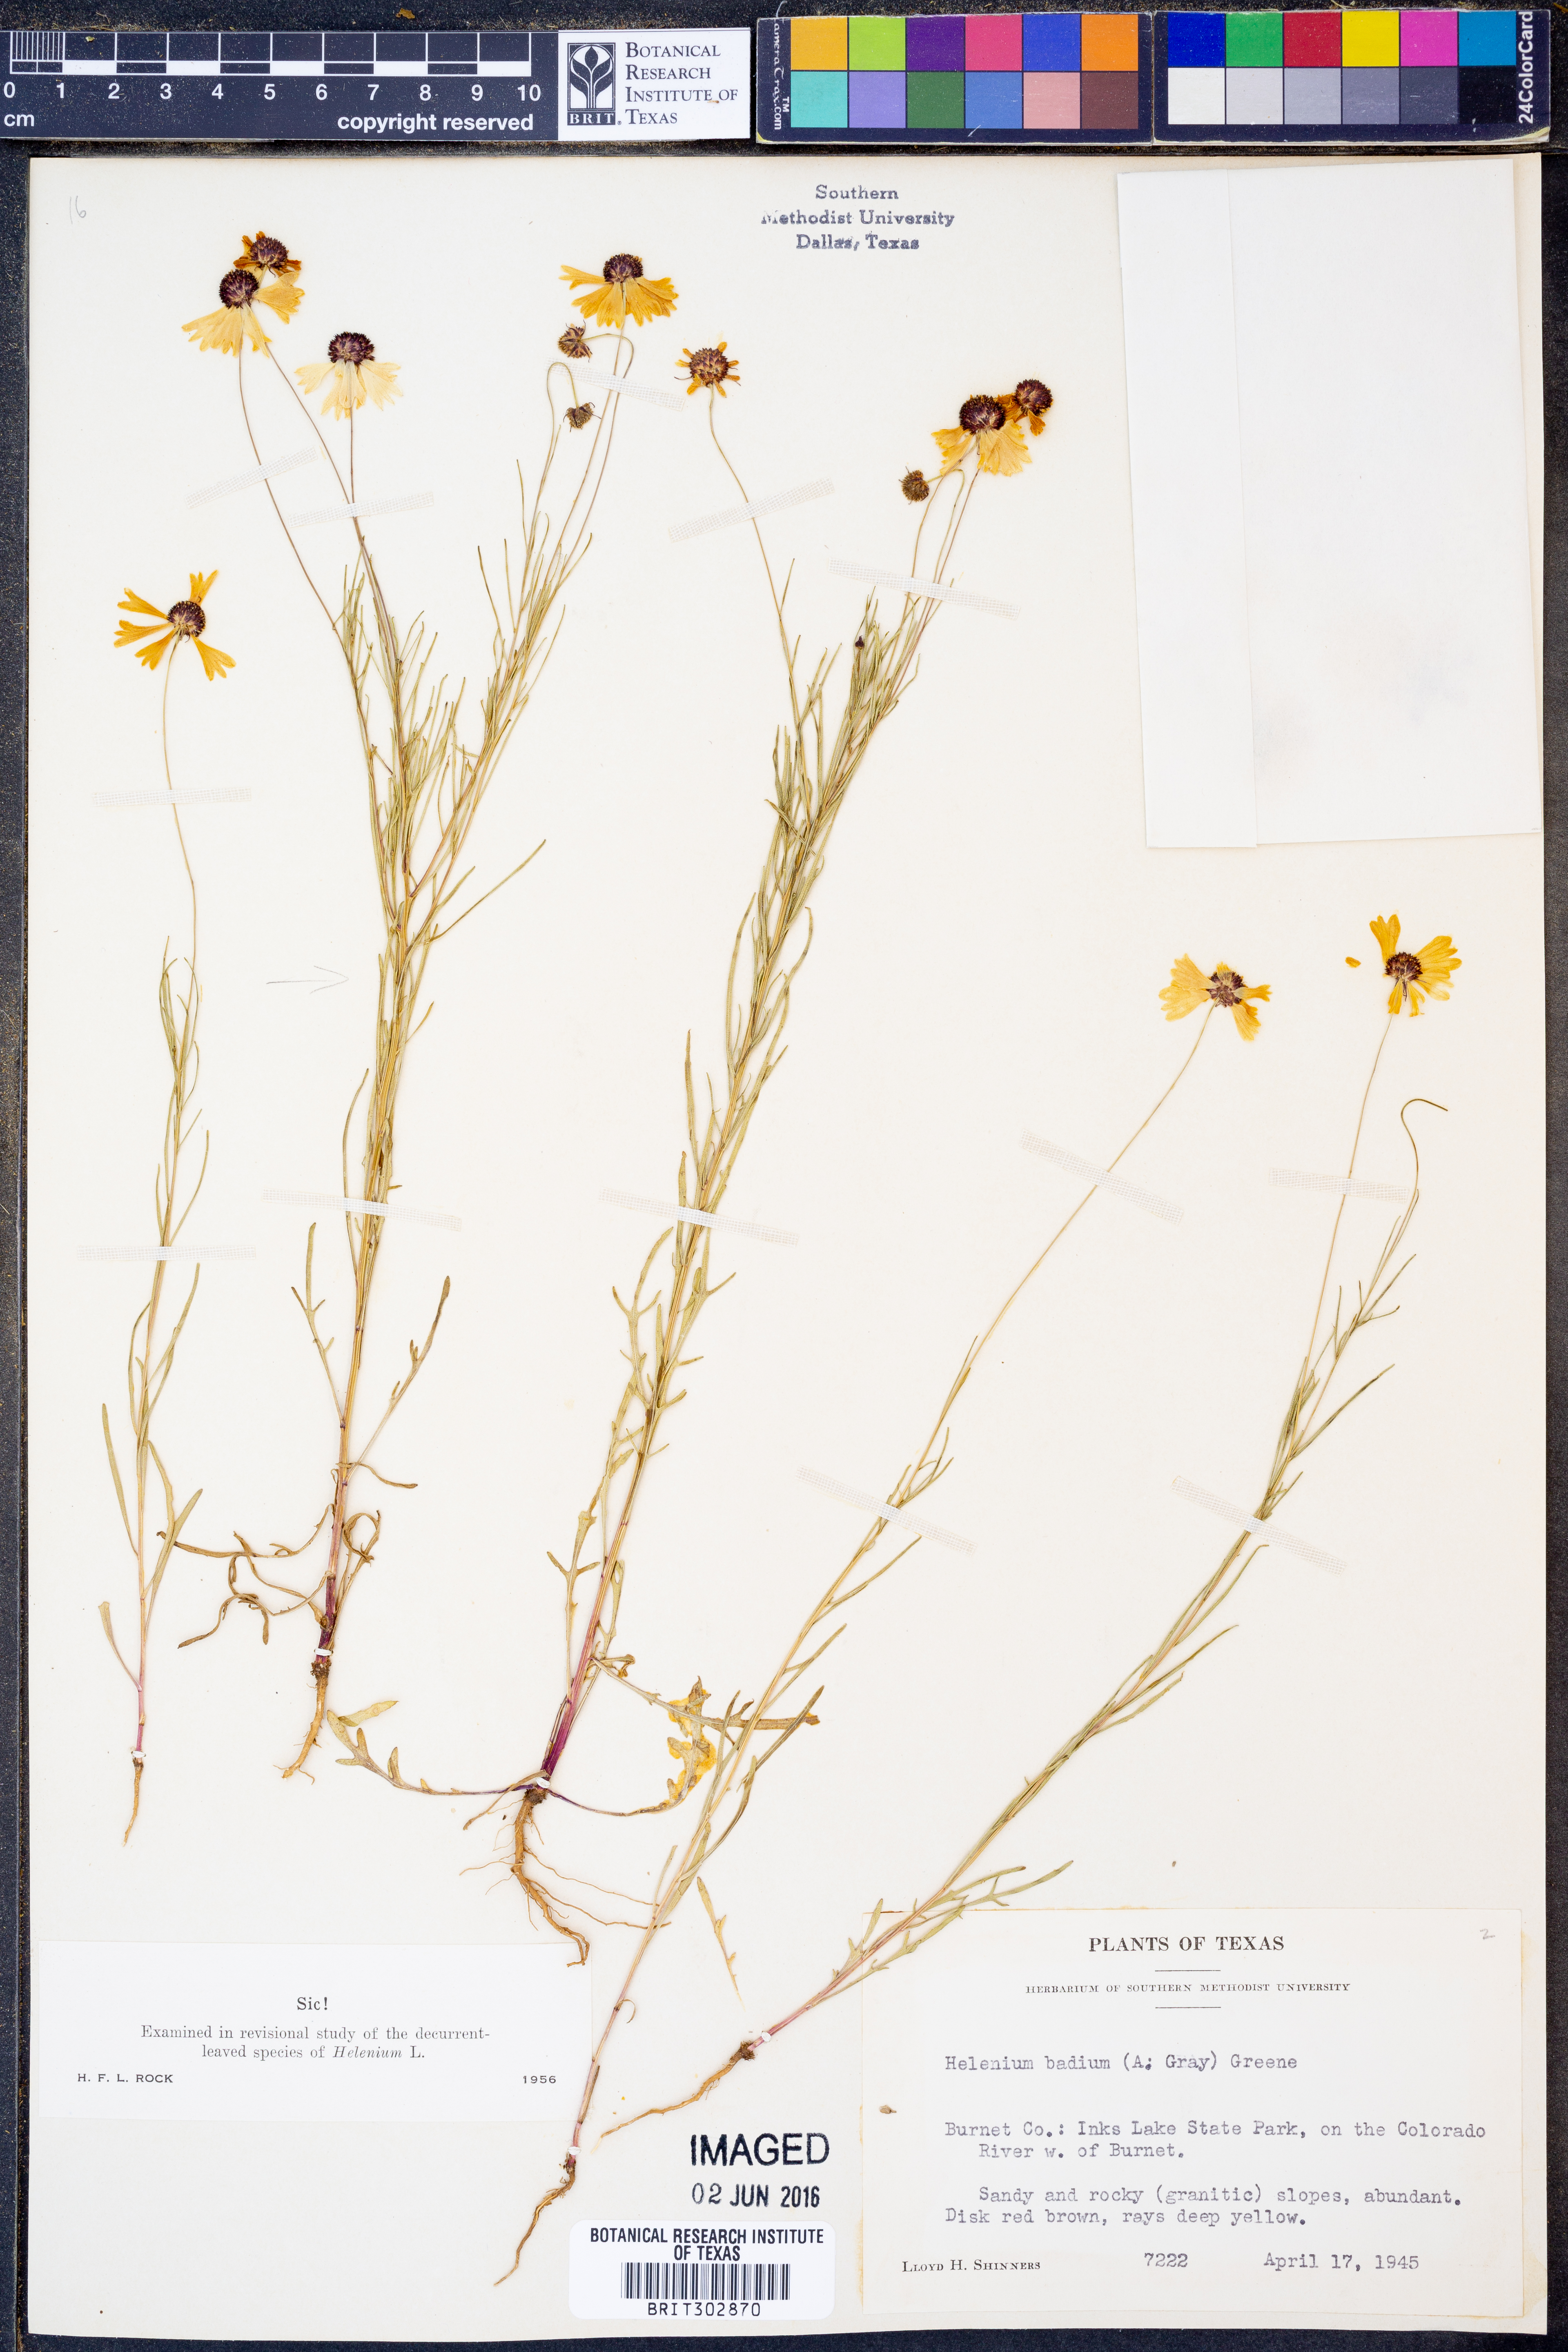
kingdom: Plantae
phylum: Tracheophyta
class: Magnoliopsida
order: Asterales
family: Asteraceae
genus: Helenium
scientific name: Helenium amarum
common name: Bitter sneezeweed
